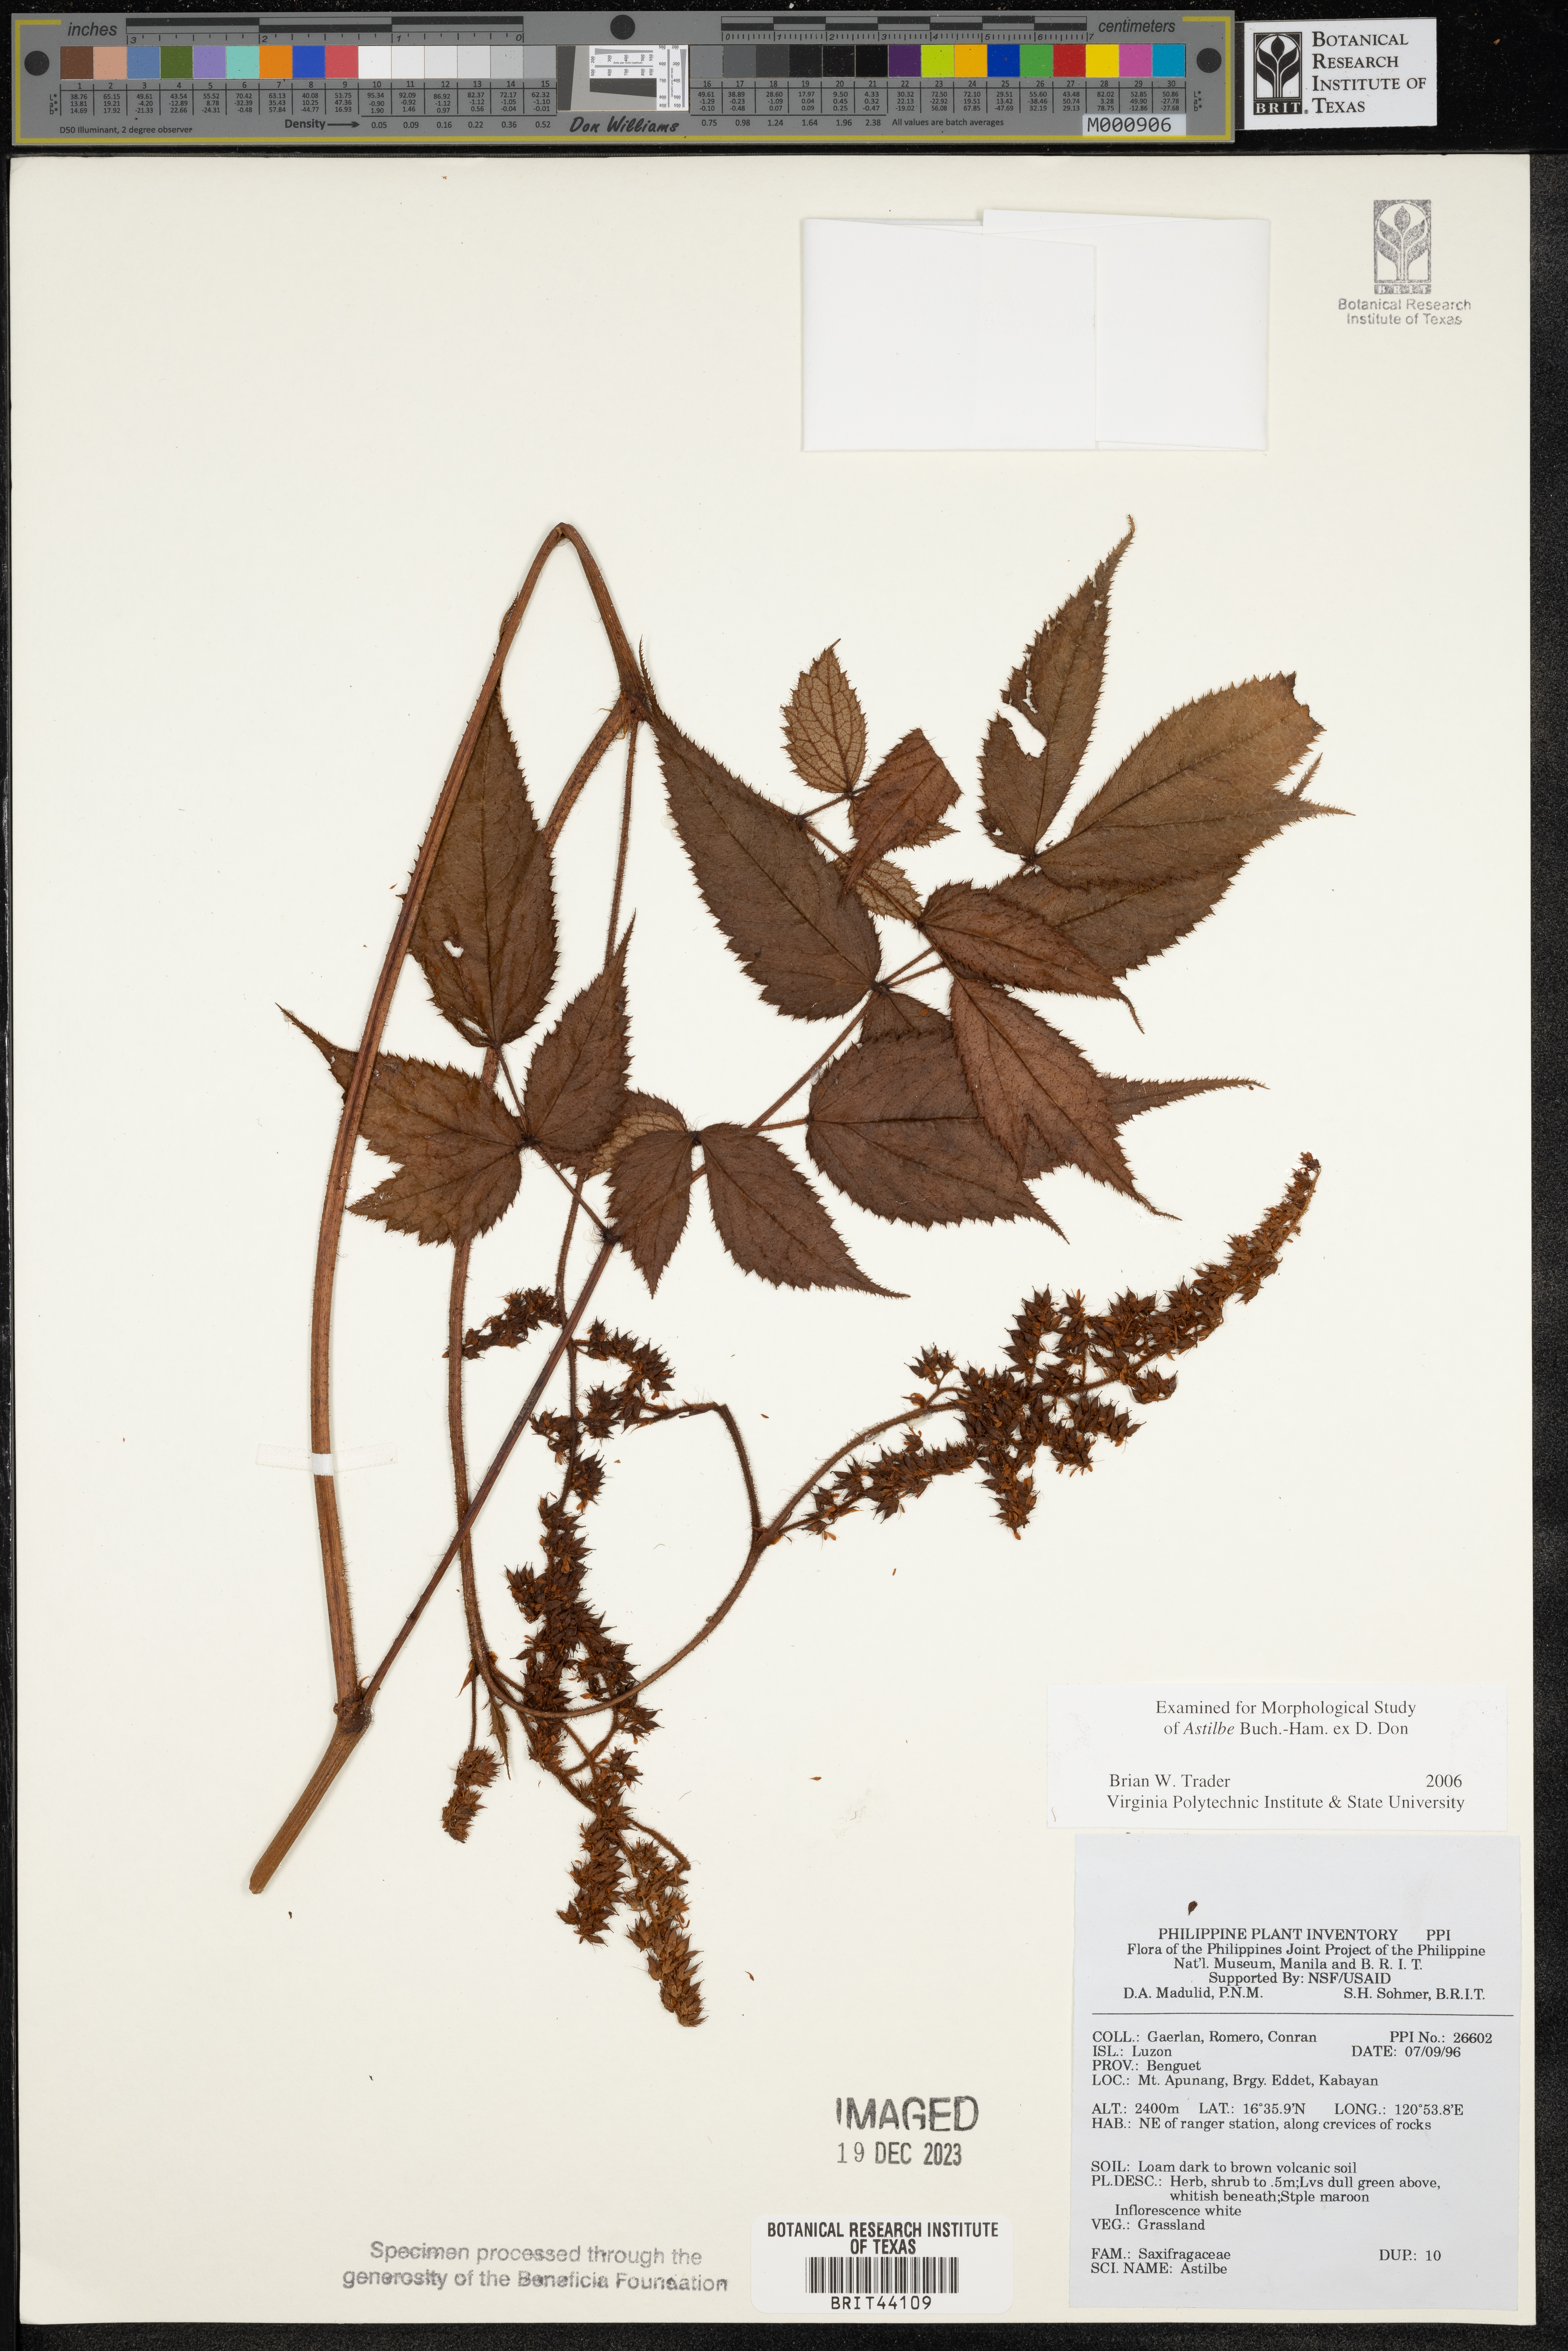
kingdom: Plantae
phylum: Tracheophyta
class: Magnoliopsida
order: Saxifragales
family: Saxifragaceae
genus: Astilbe
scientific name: Astilbe
